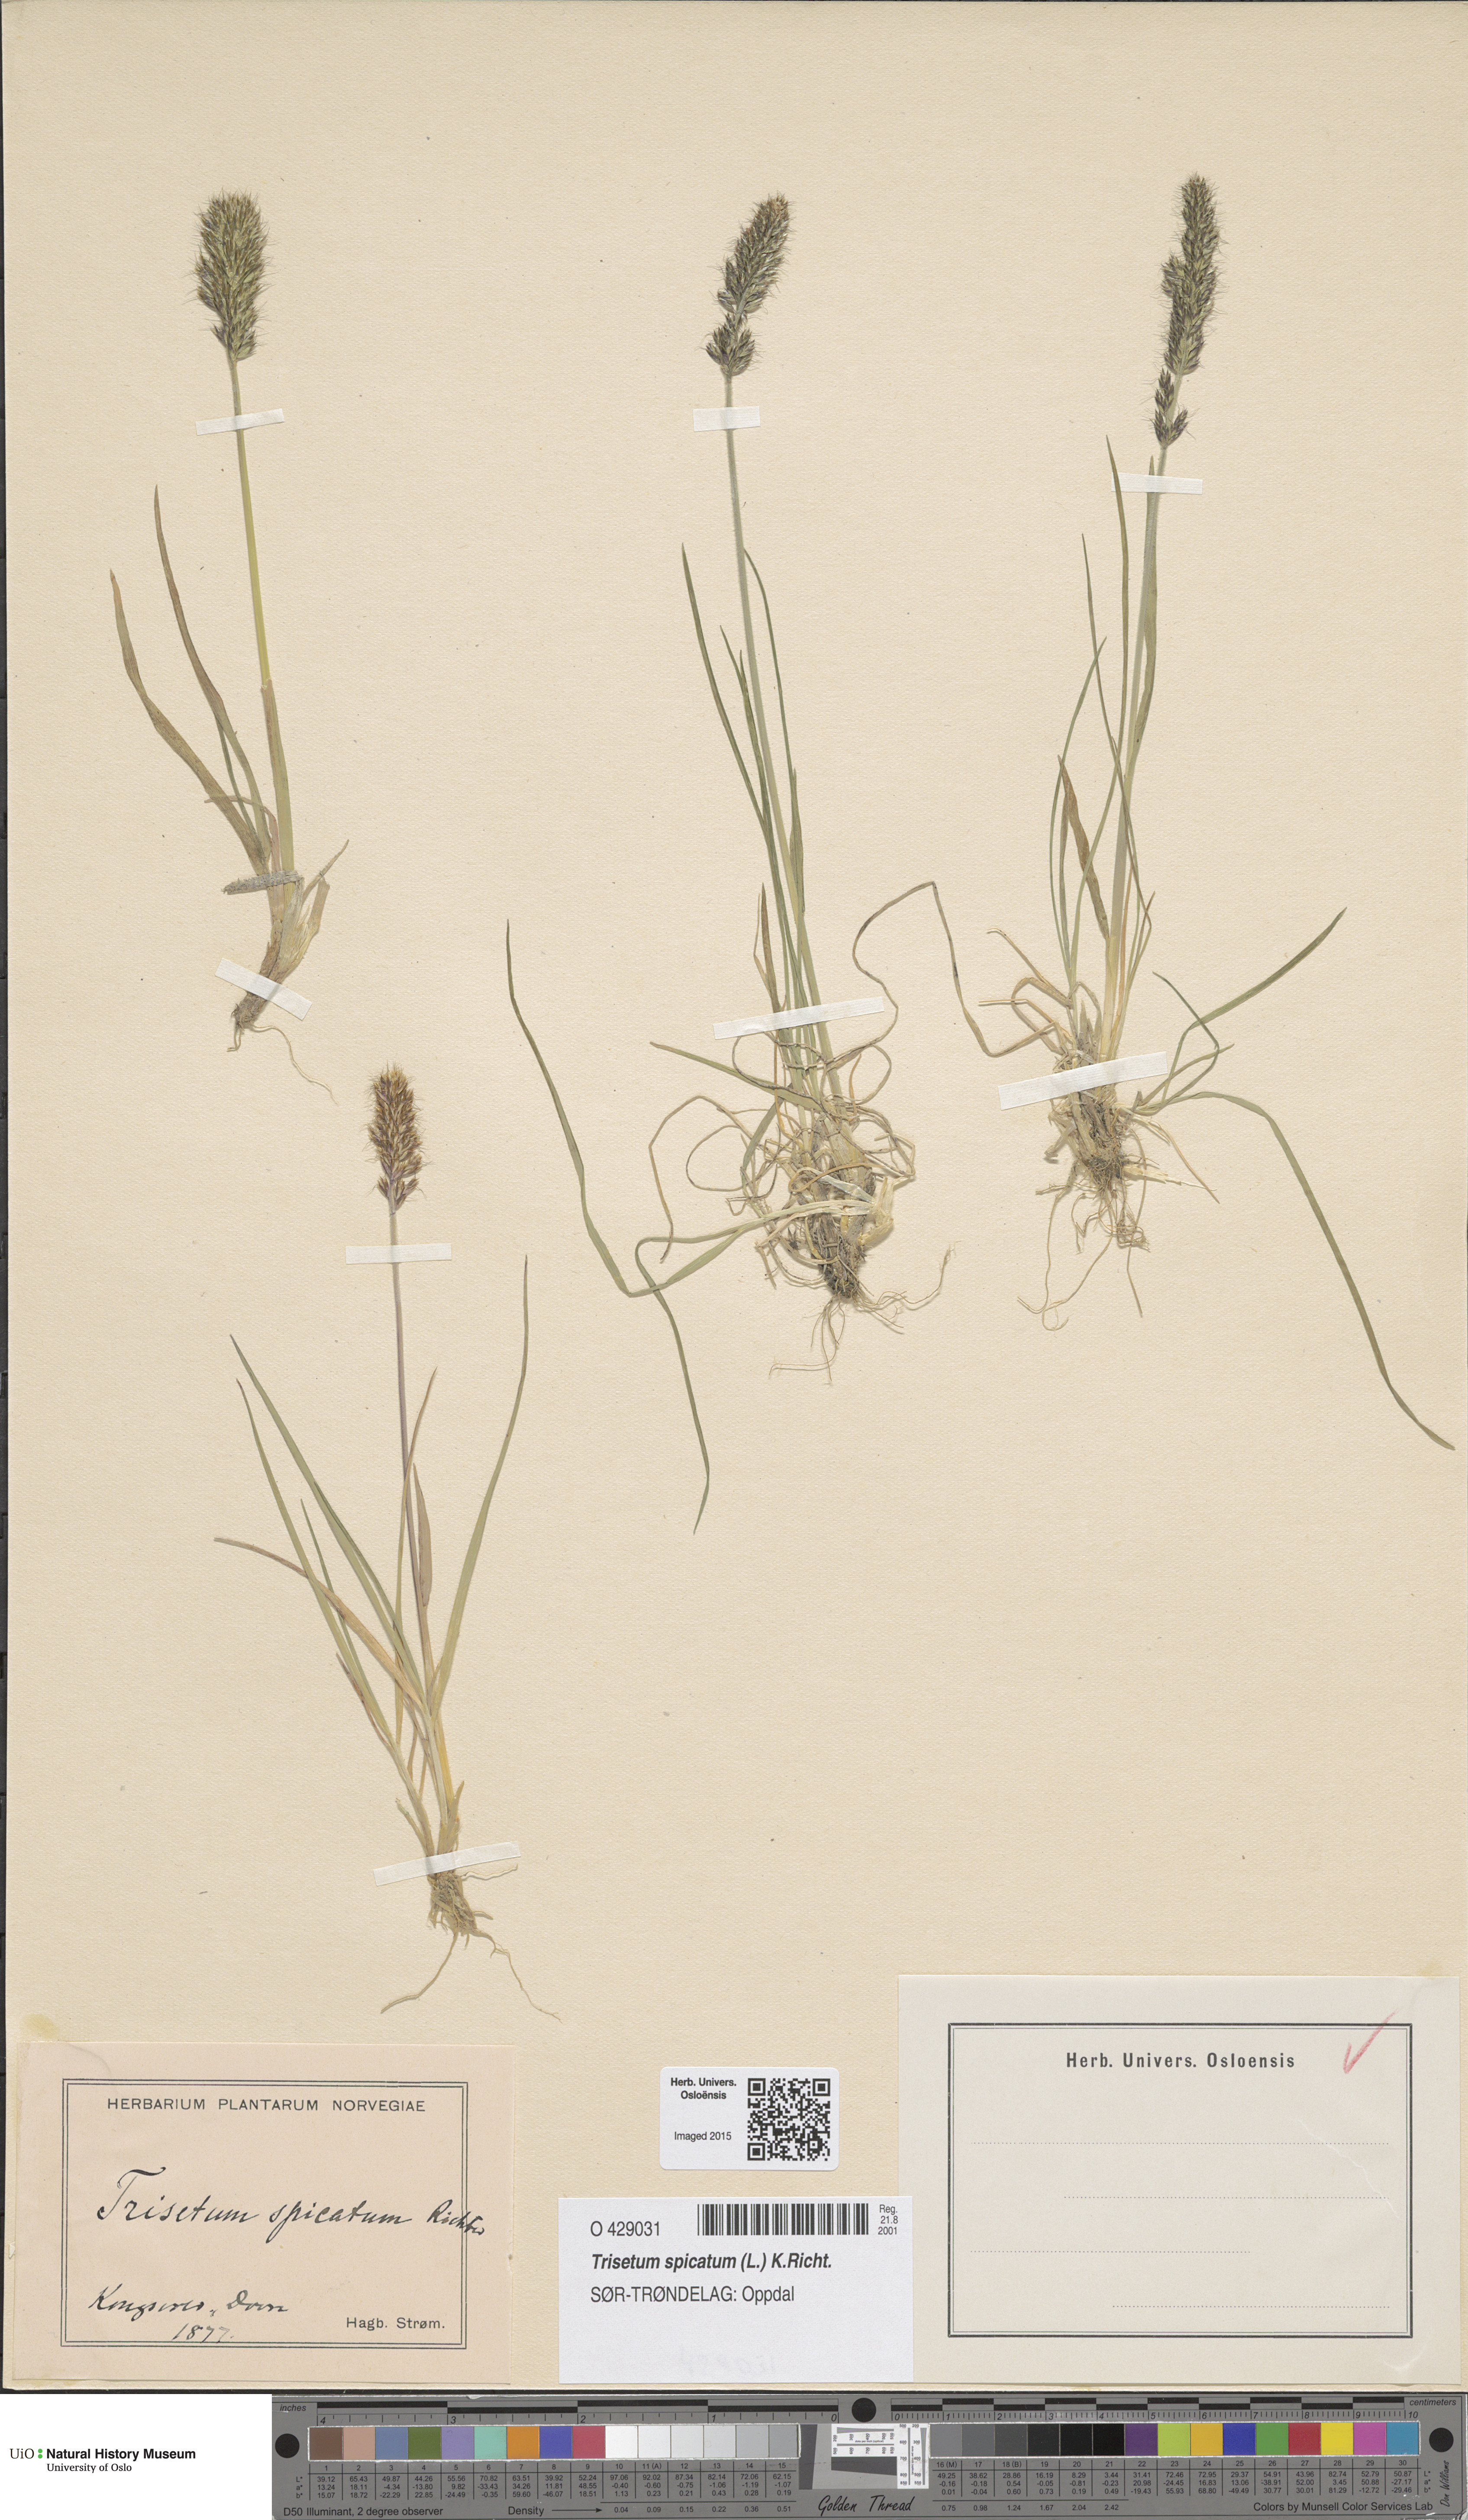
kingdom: Plantae
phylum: Tracheophyta
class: Liliopsida
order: Poales
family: Poaceae
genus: Koeleria
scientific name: Koeleria spicata
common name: Mountain trisetum
